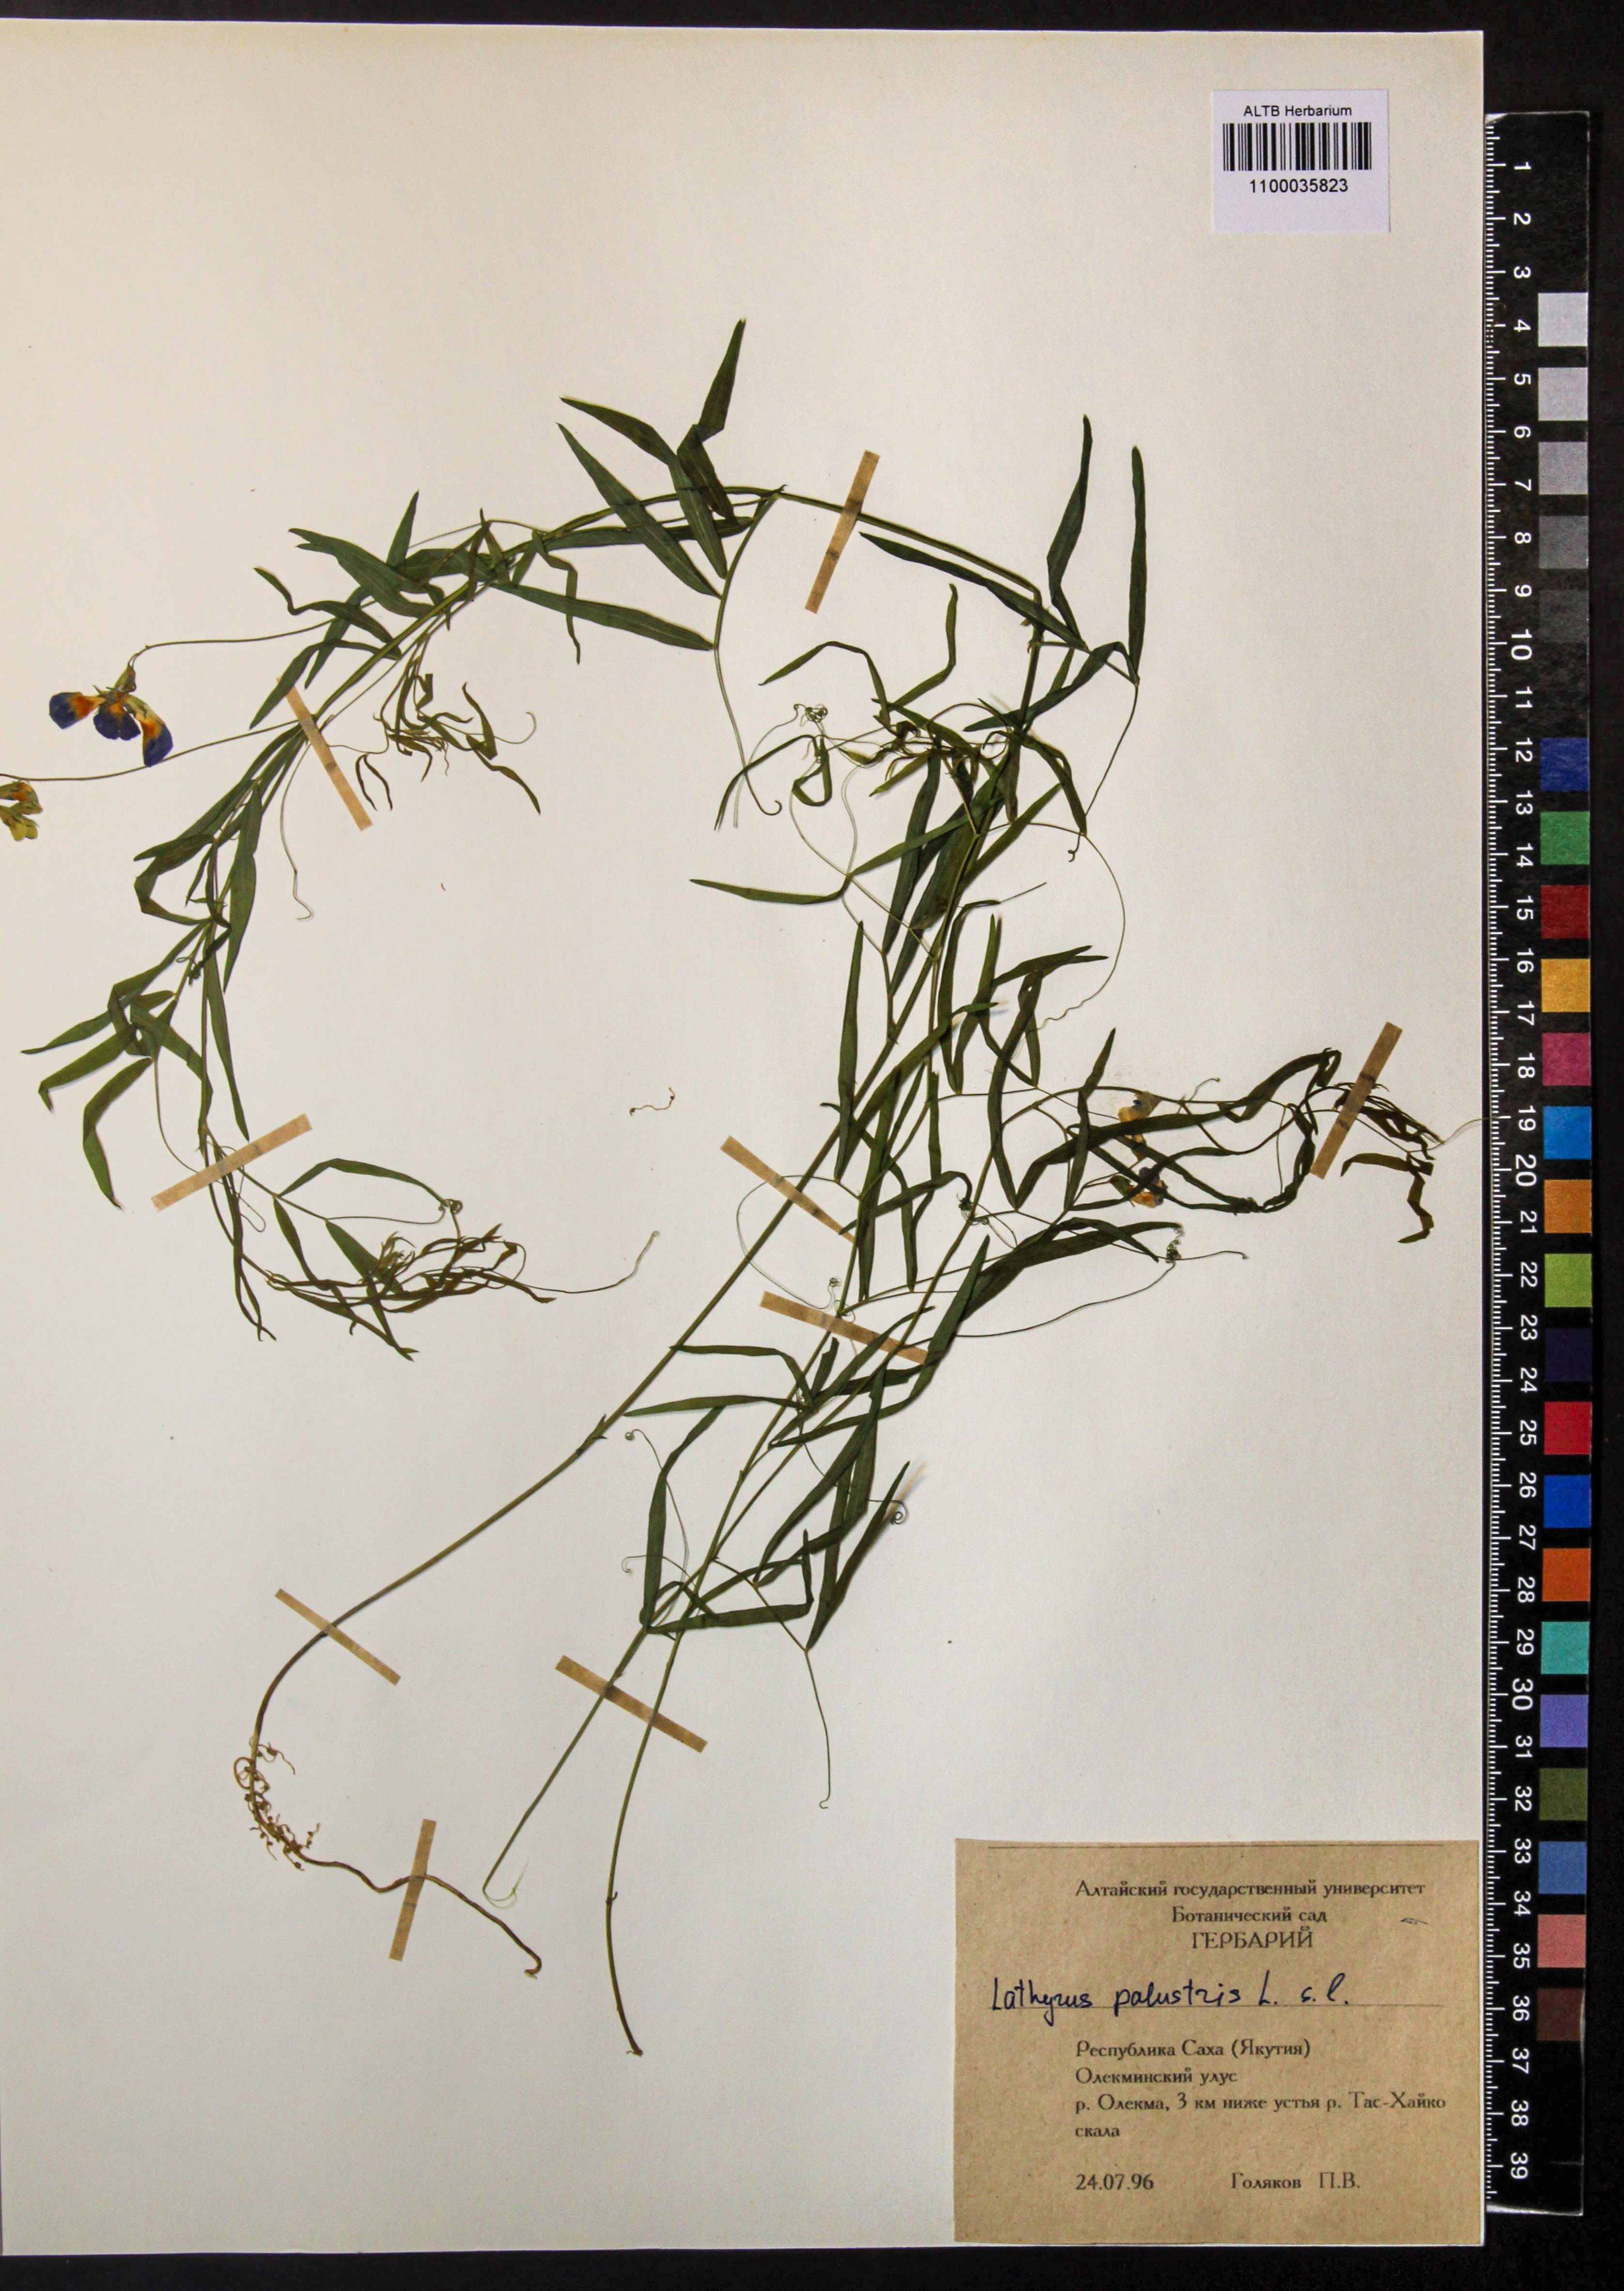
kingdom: Plantae
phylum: Tracheophyta
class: Magnoliopsida
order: Fabales
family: Fabaceae
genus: Lathyrus
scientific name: Lathyrus palustris
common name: Marsh pea
